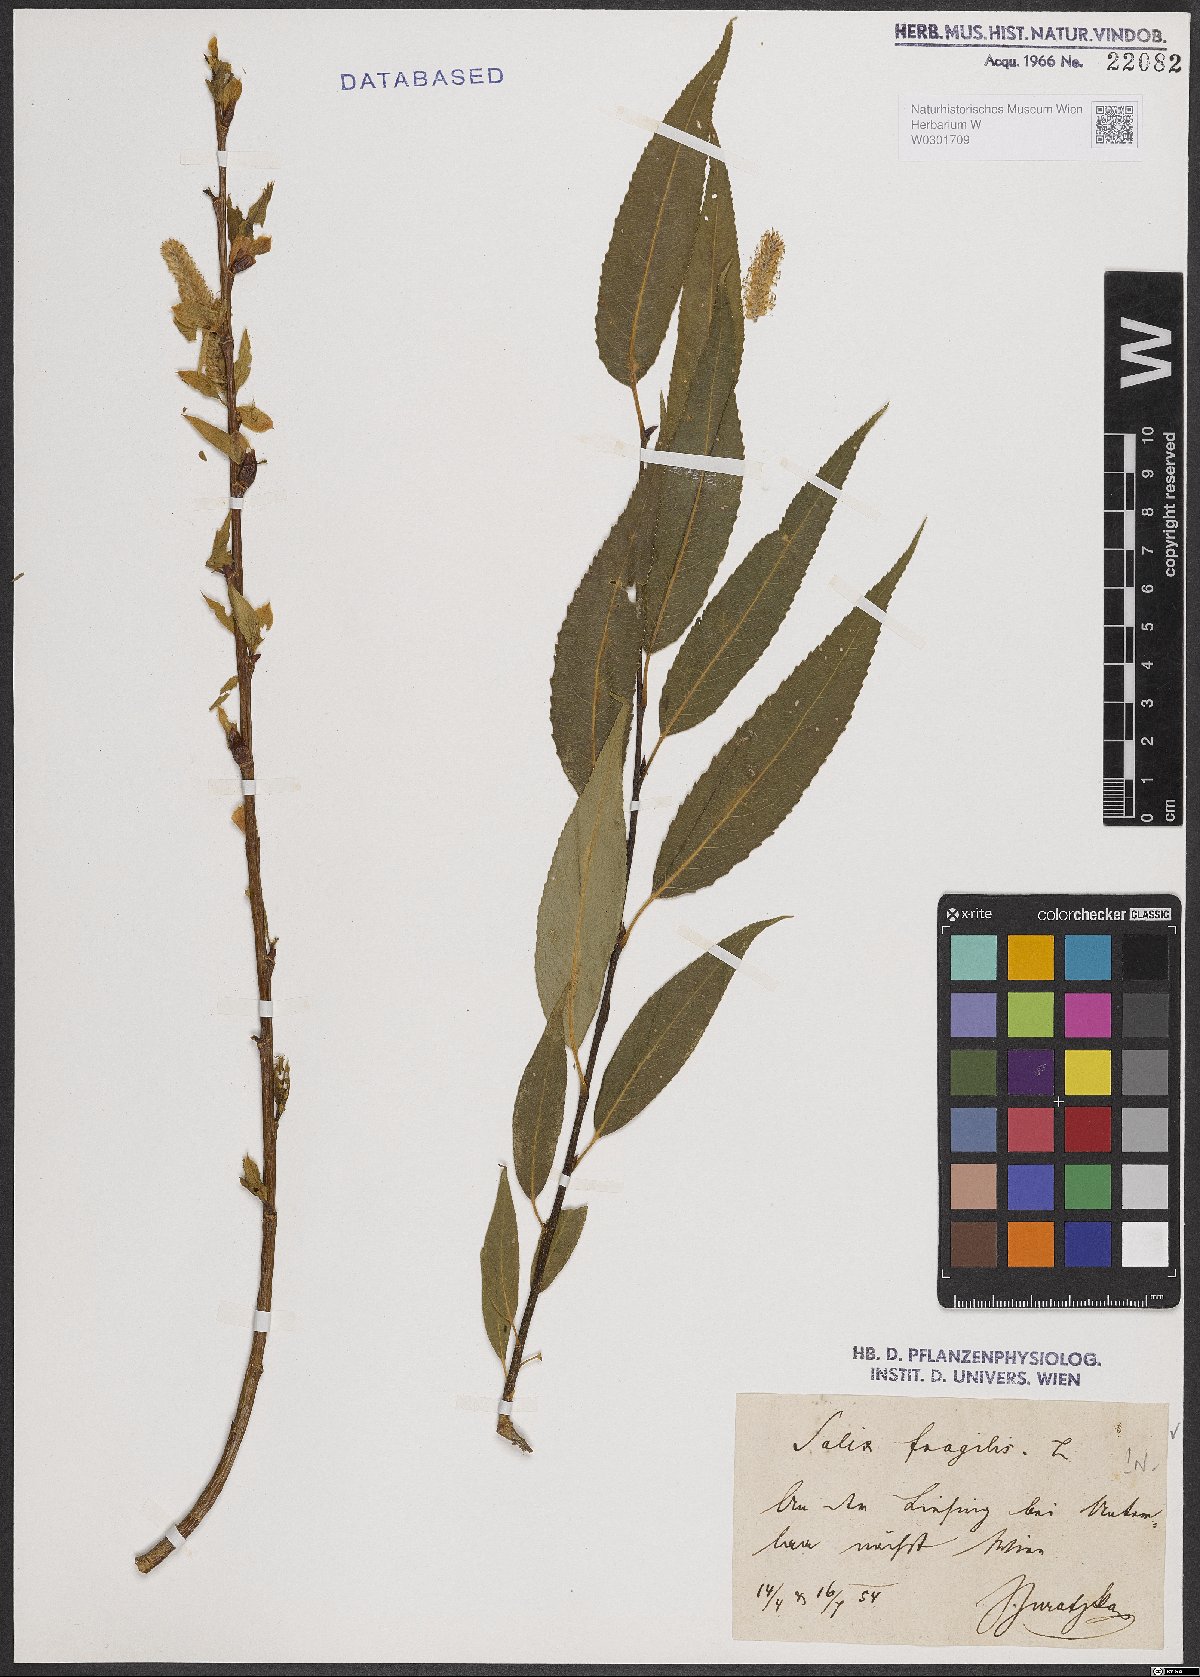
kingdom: Plantae
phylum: Tracheophyta
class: Magnoliopsida
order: Malpighiales
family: Salicaceae
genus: Salix
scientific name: Salix fragilis
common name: Crack willow
